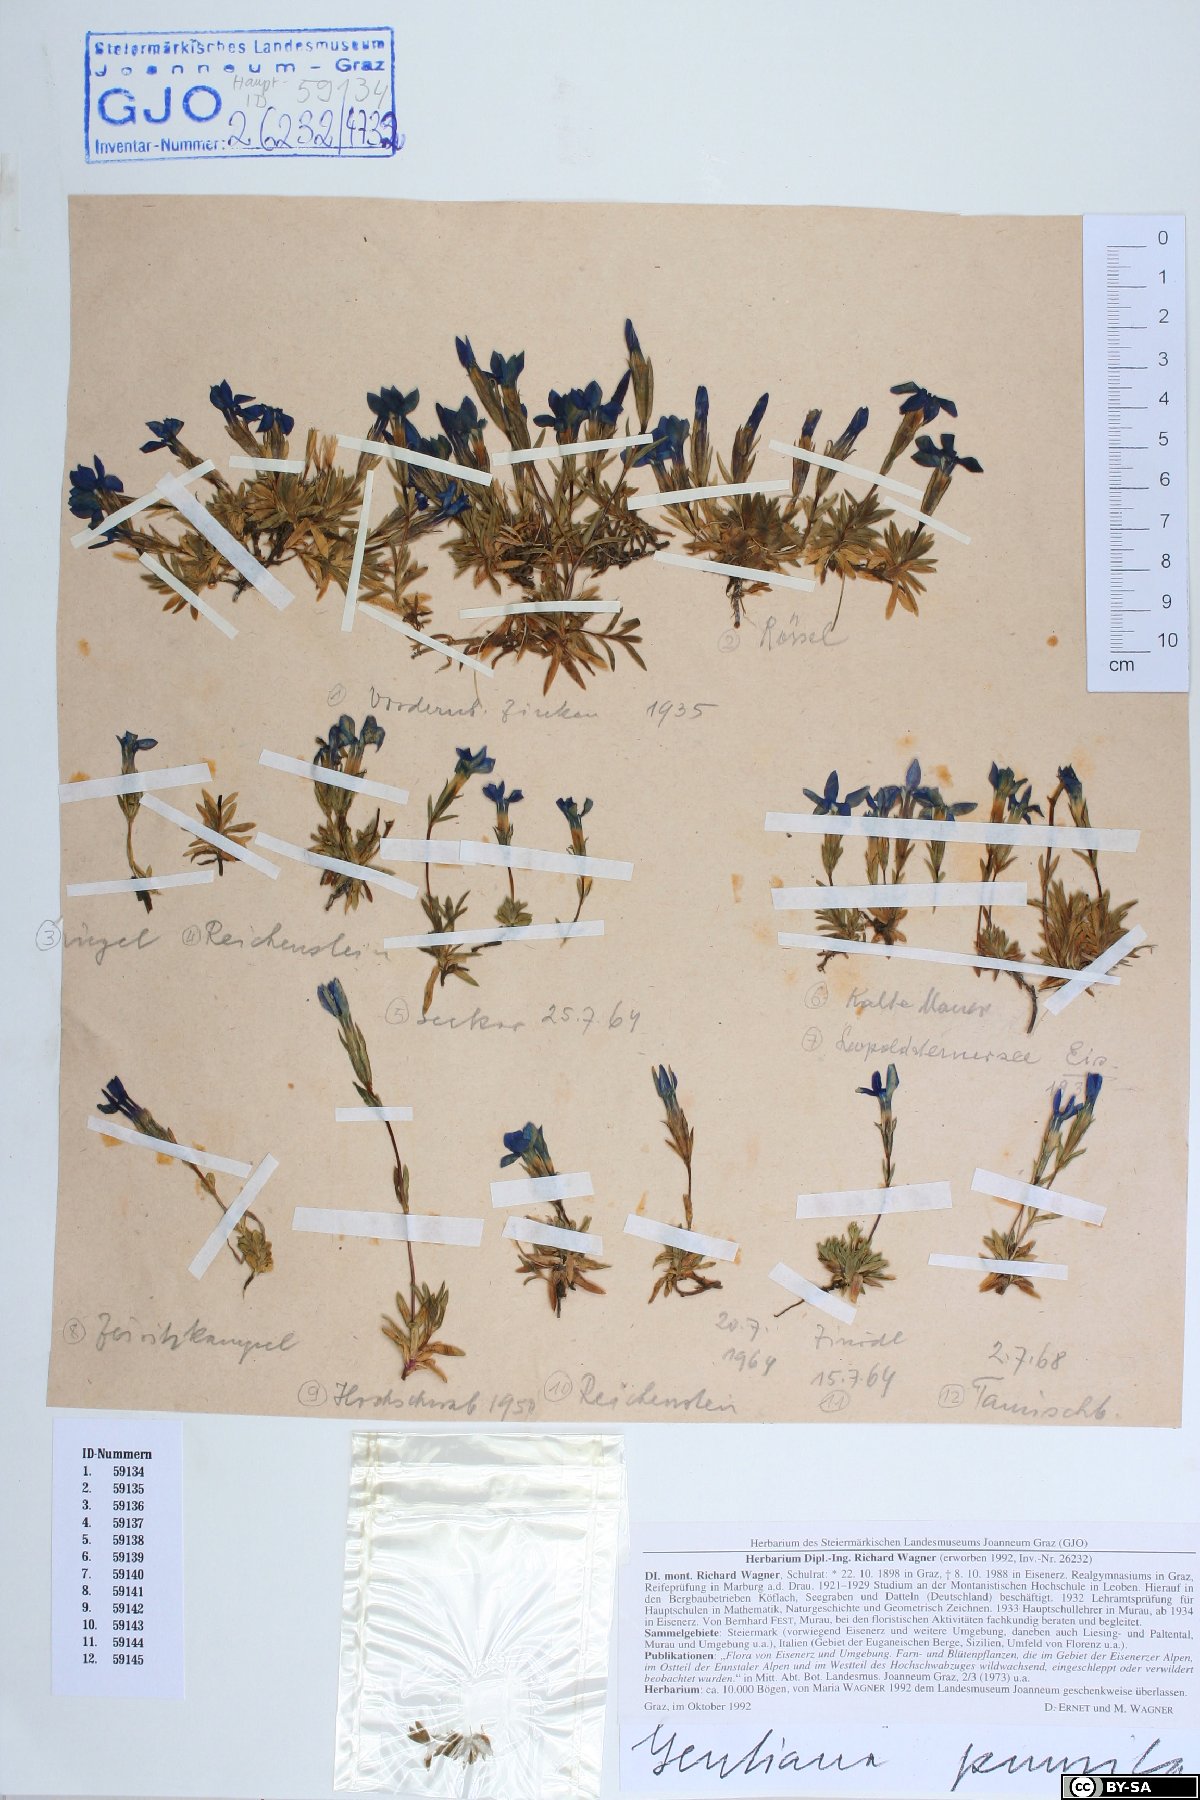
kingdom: Plantae
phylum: Tracheophyta
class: Magnoliopsida
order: Gentianales
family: Gentianaceae
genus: Gentiana
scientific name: Gentiana pumila
